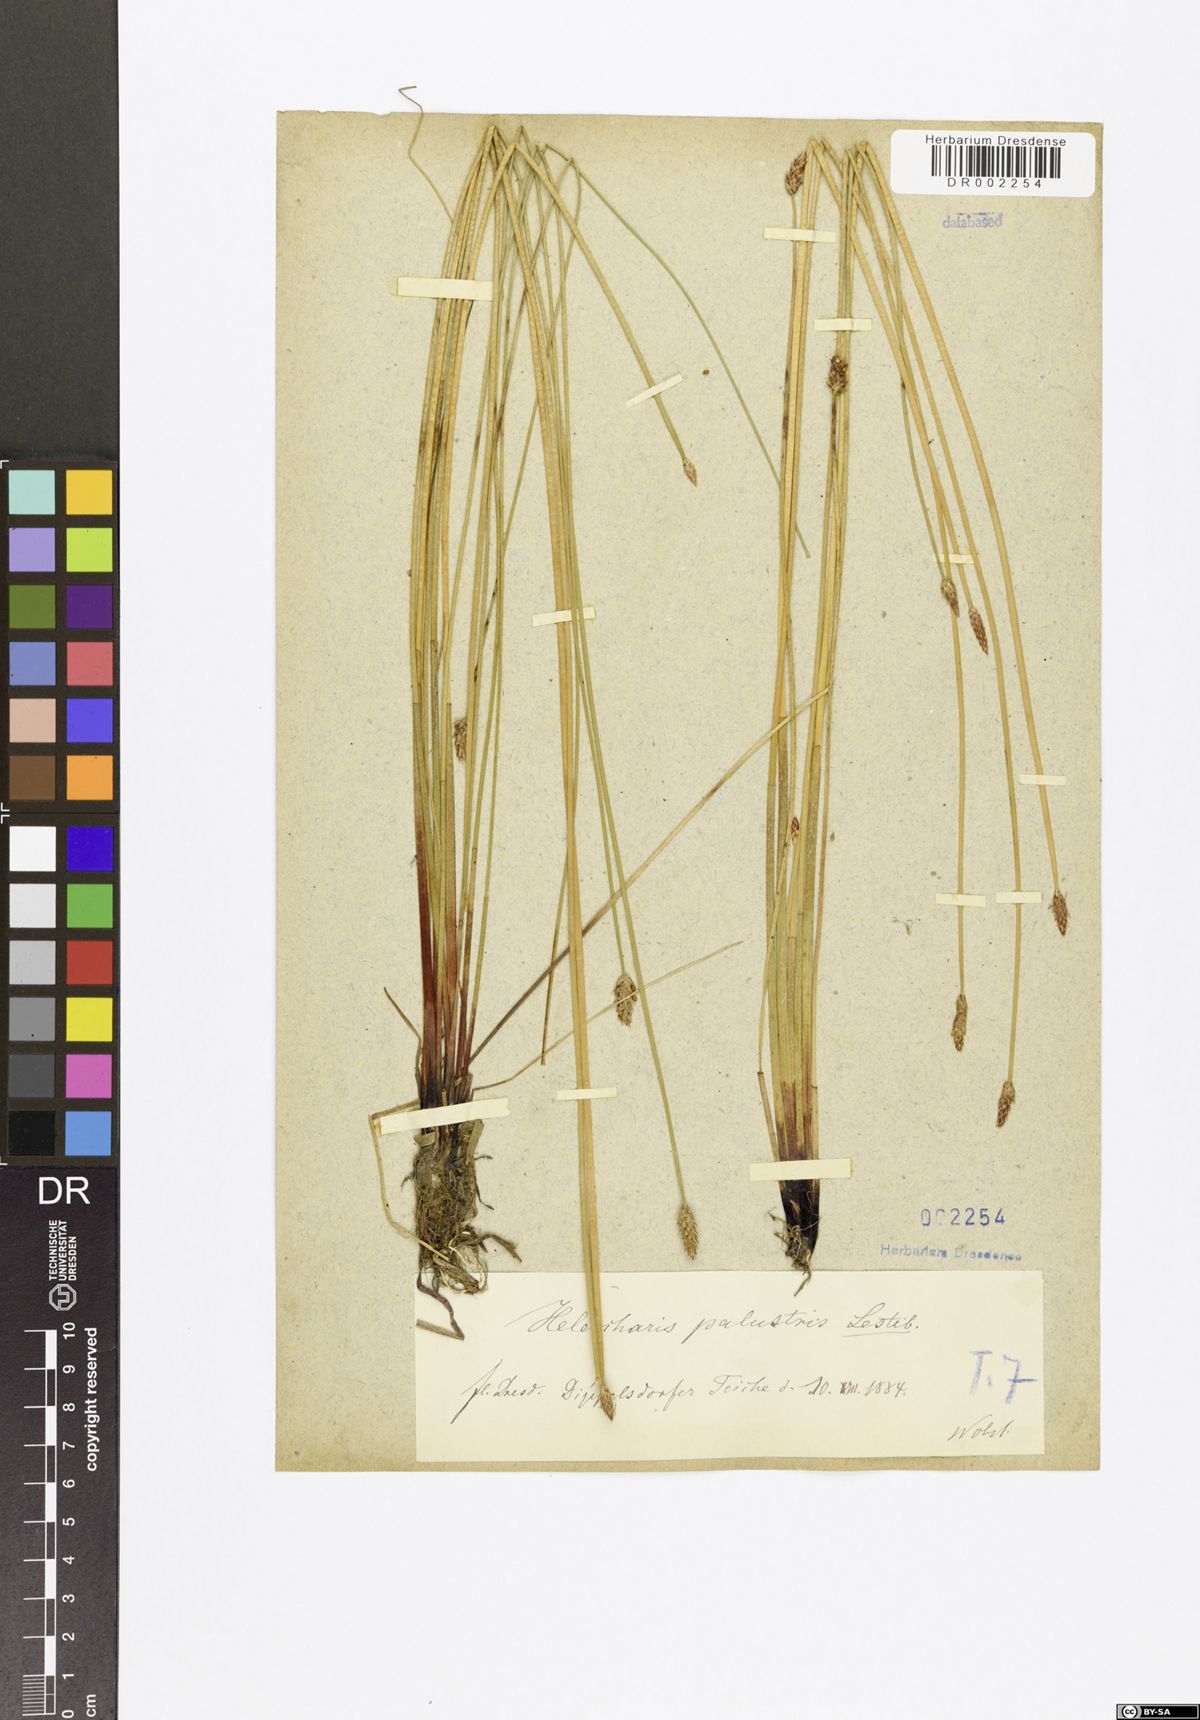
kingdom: Plantae
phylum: Tracheophyta
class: Liliopsida
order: Poales
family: Cyperaceae
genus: Eleocharis
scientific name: Eleocharis palustris
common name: Common spike-rush
